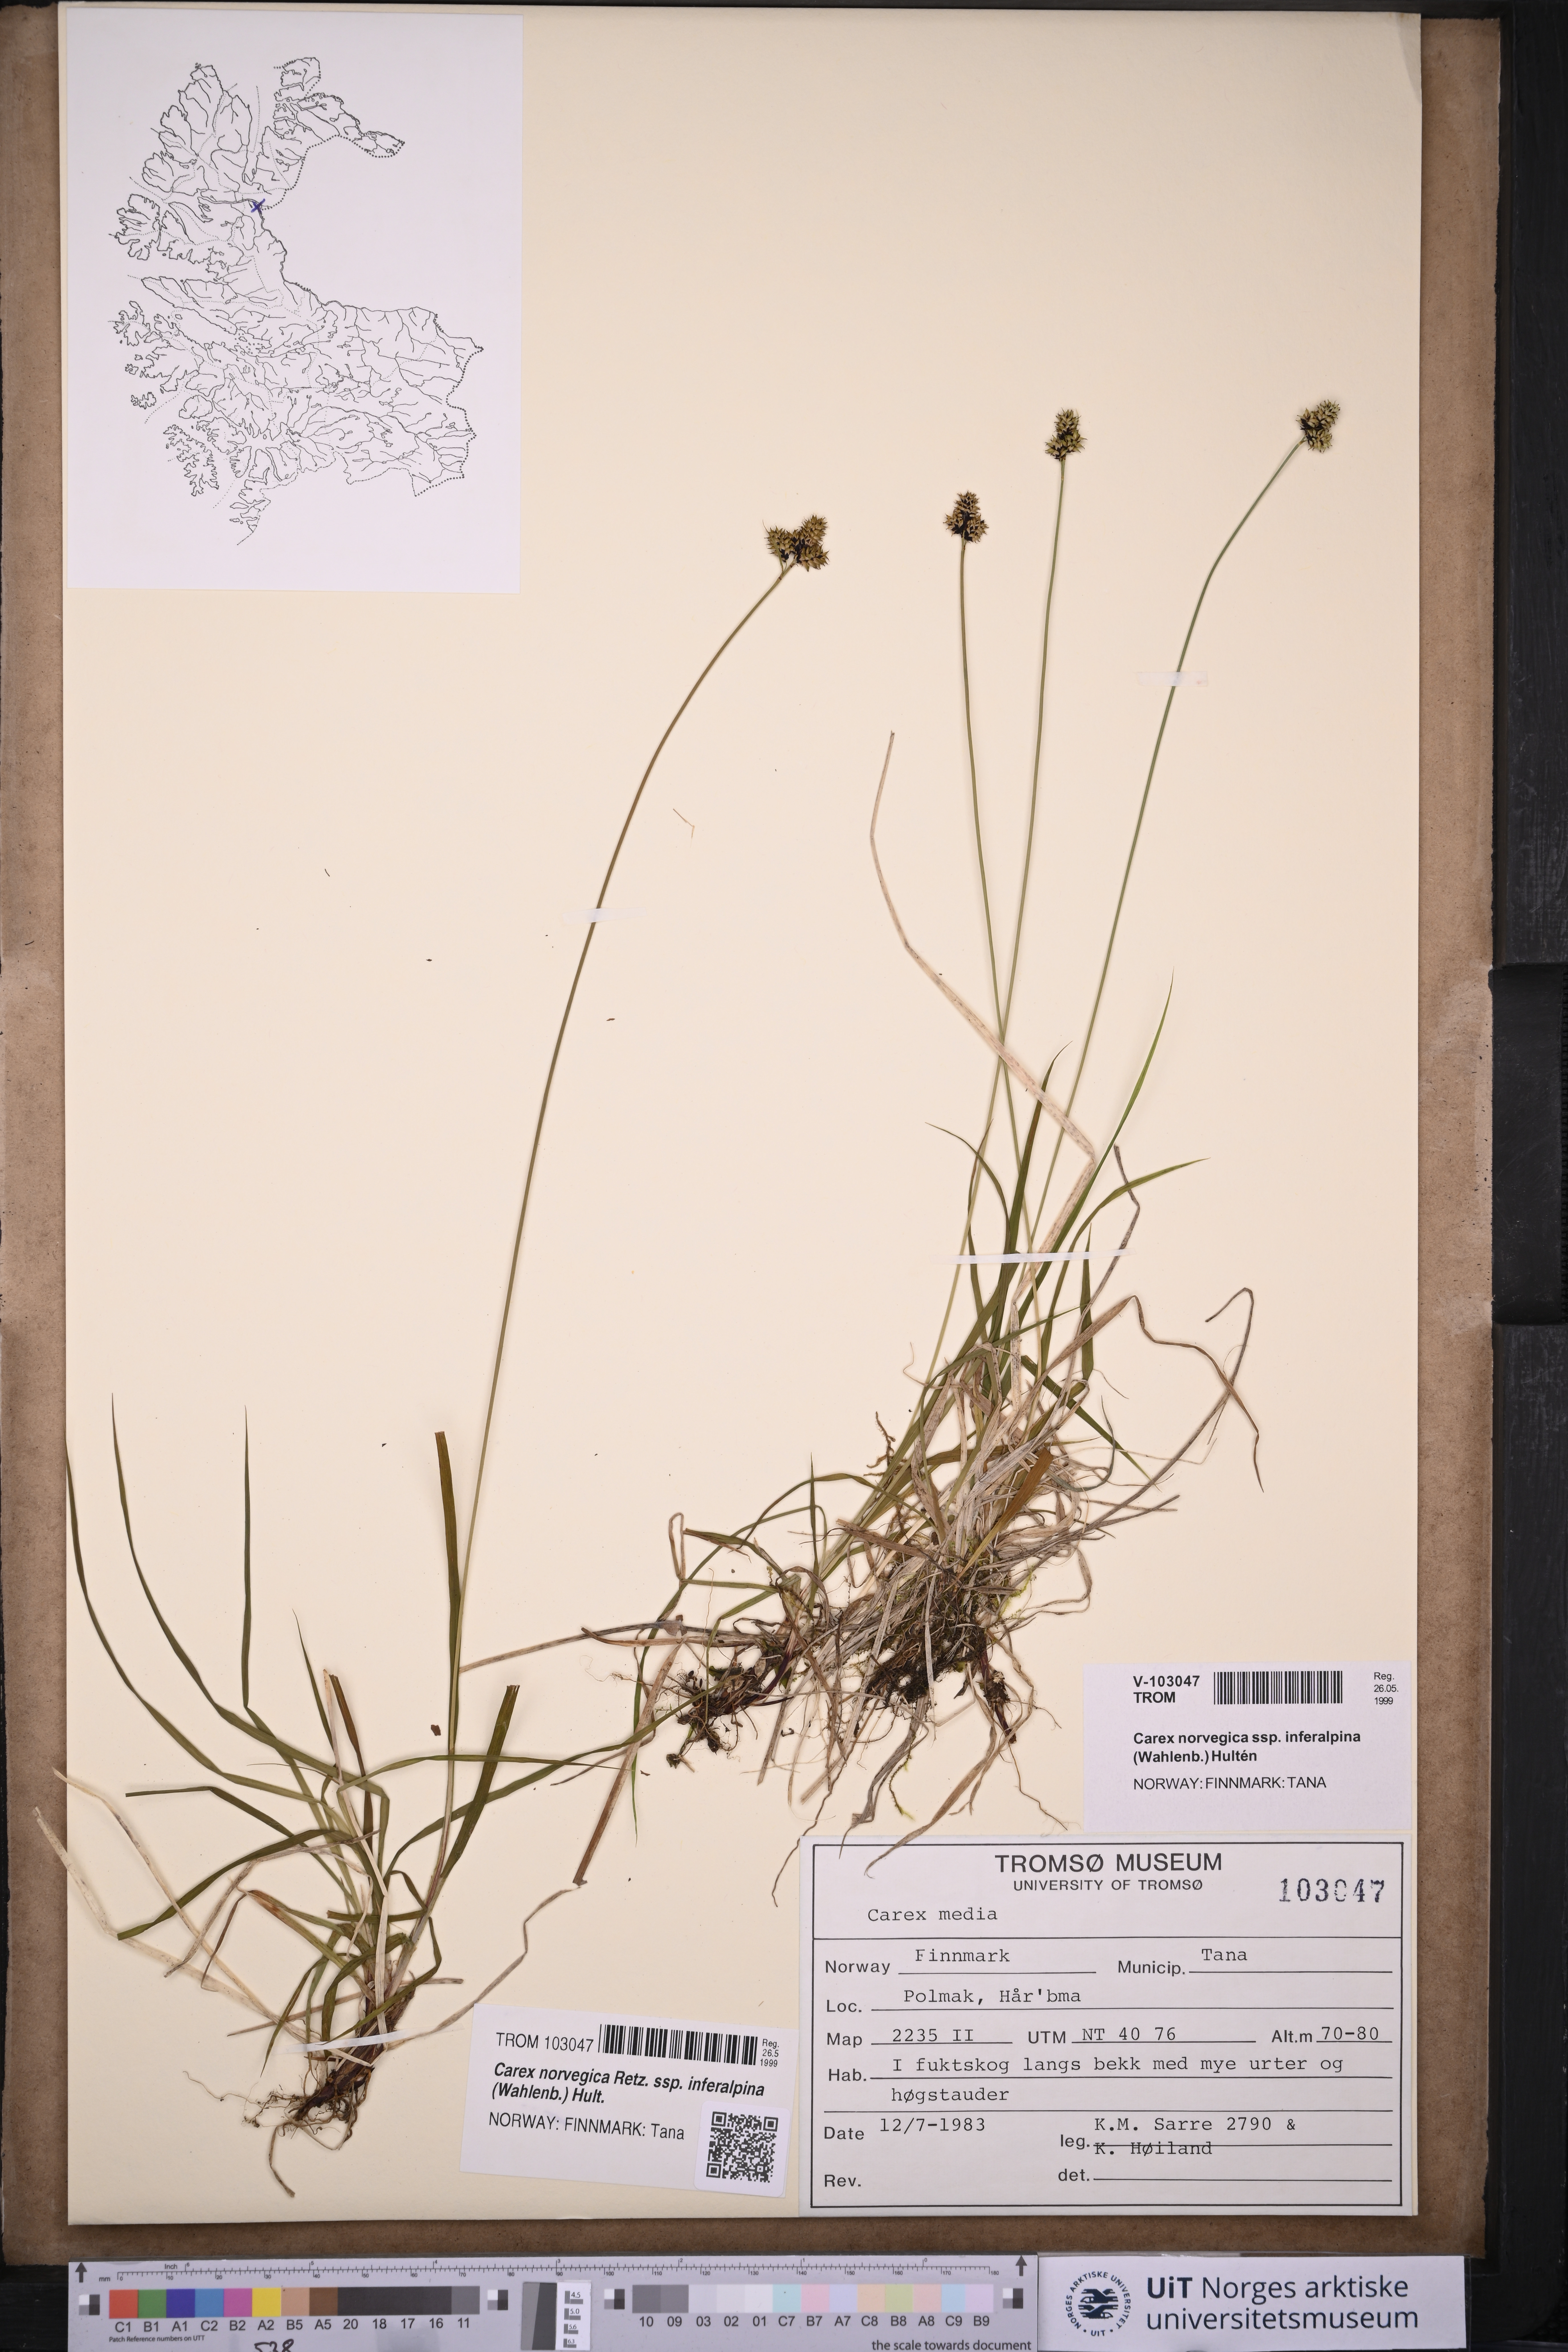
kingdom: Plantae
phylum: Tracheophyta
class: Liliopsida
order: Poales
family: Cyperaceae
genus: Carex
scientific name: Carex media
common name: Alpine sedge
